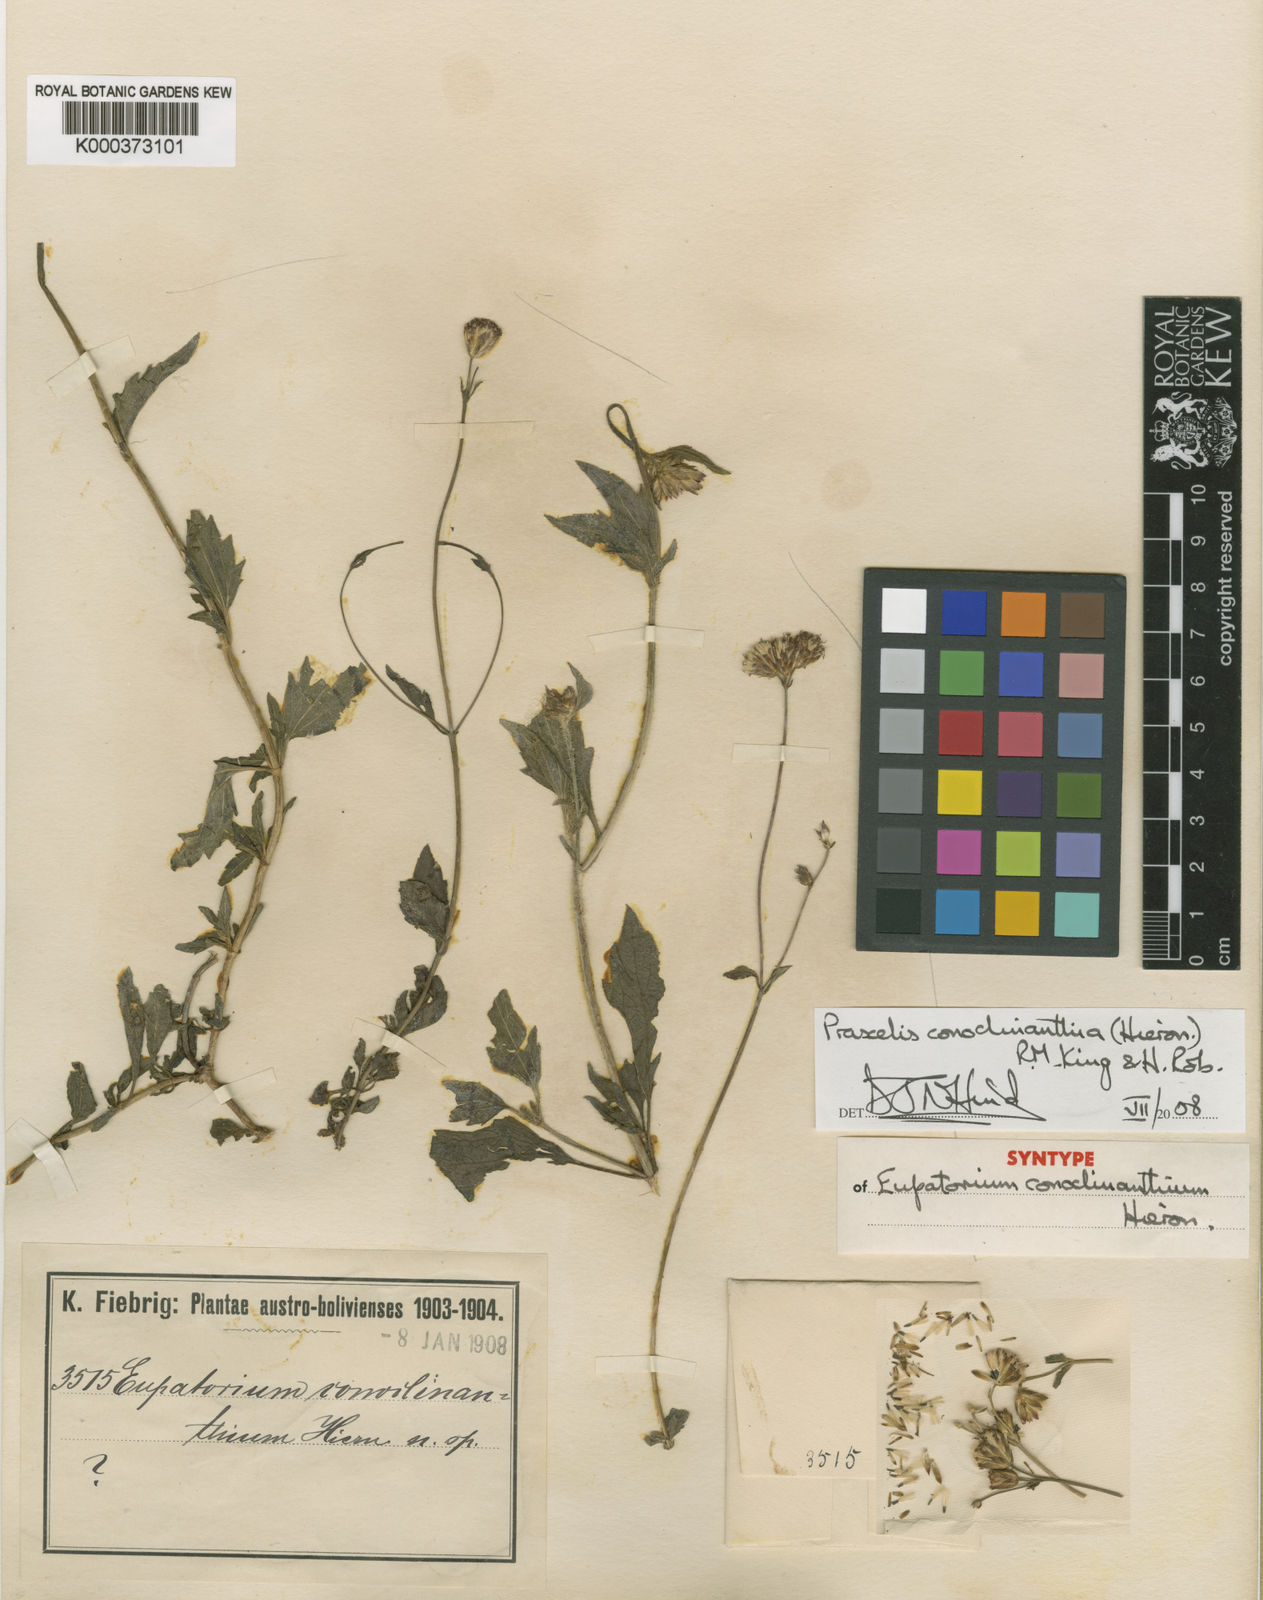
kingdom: Plantae
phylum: Tracheophyta
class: Magnoliopsida
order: Asterales
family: Asteraceae
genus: Praxelis
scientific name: Praxelis conoclinanthia
